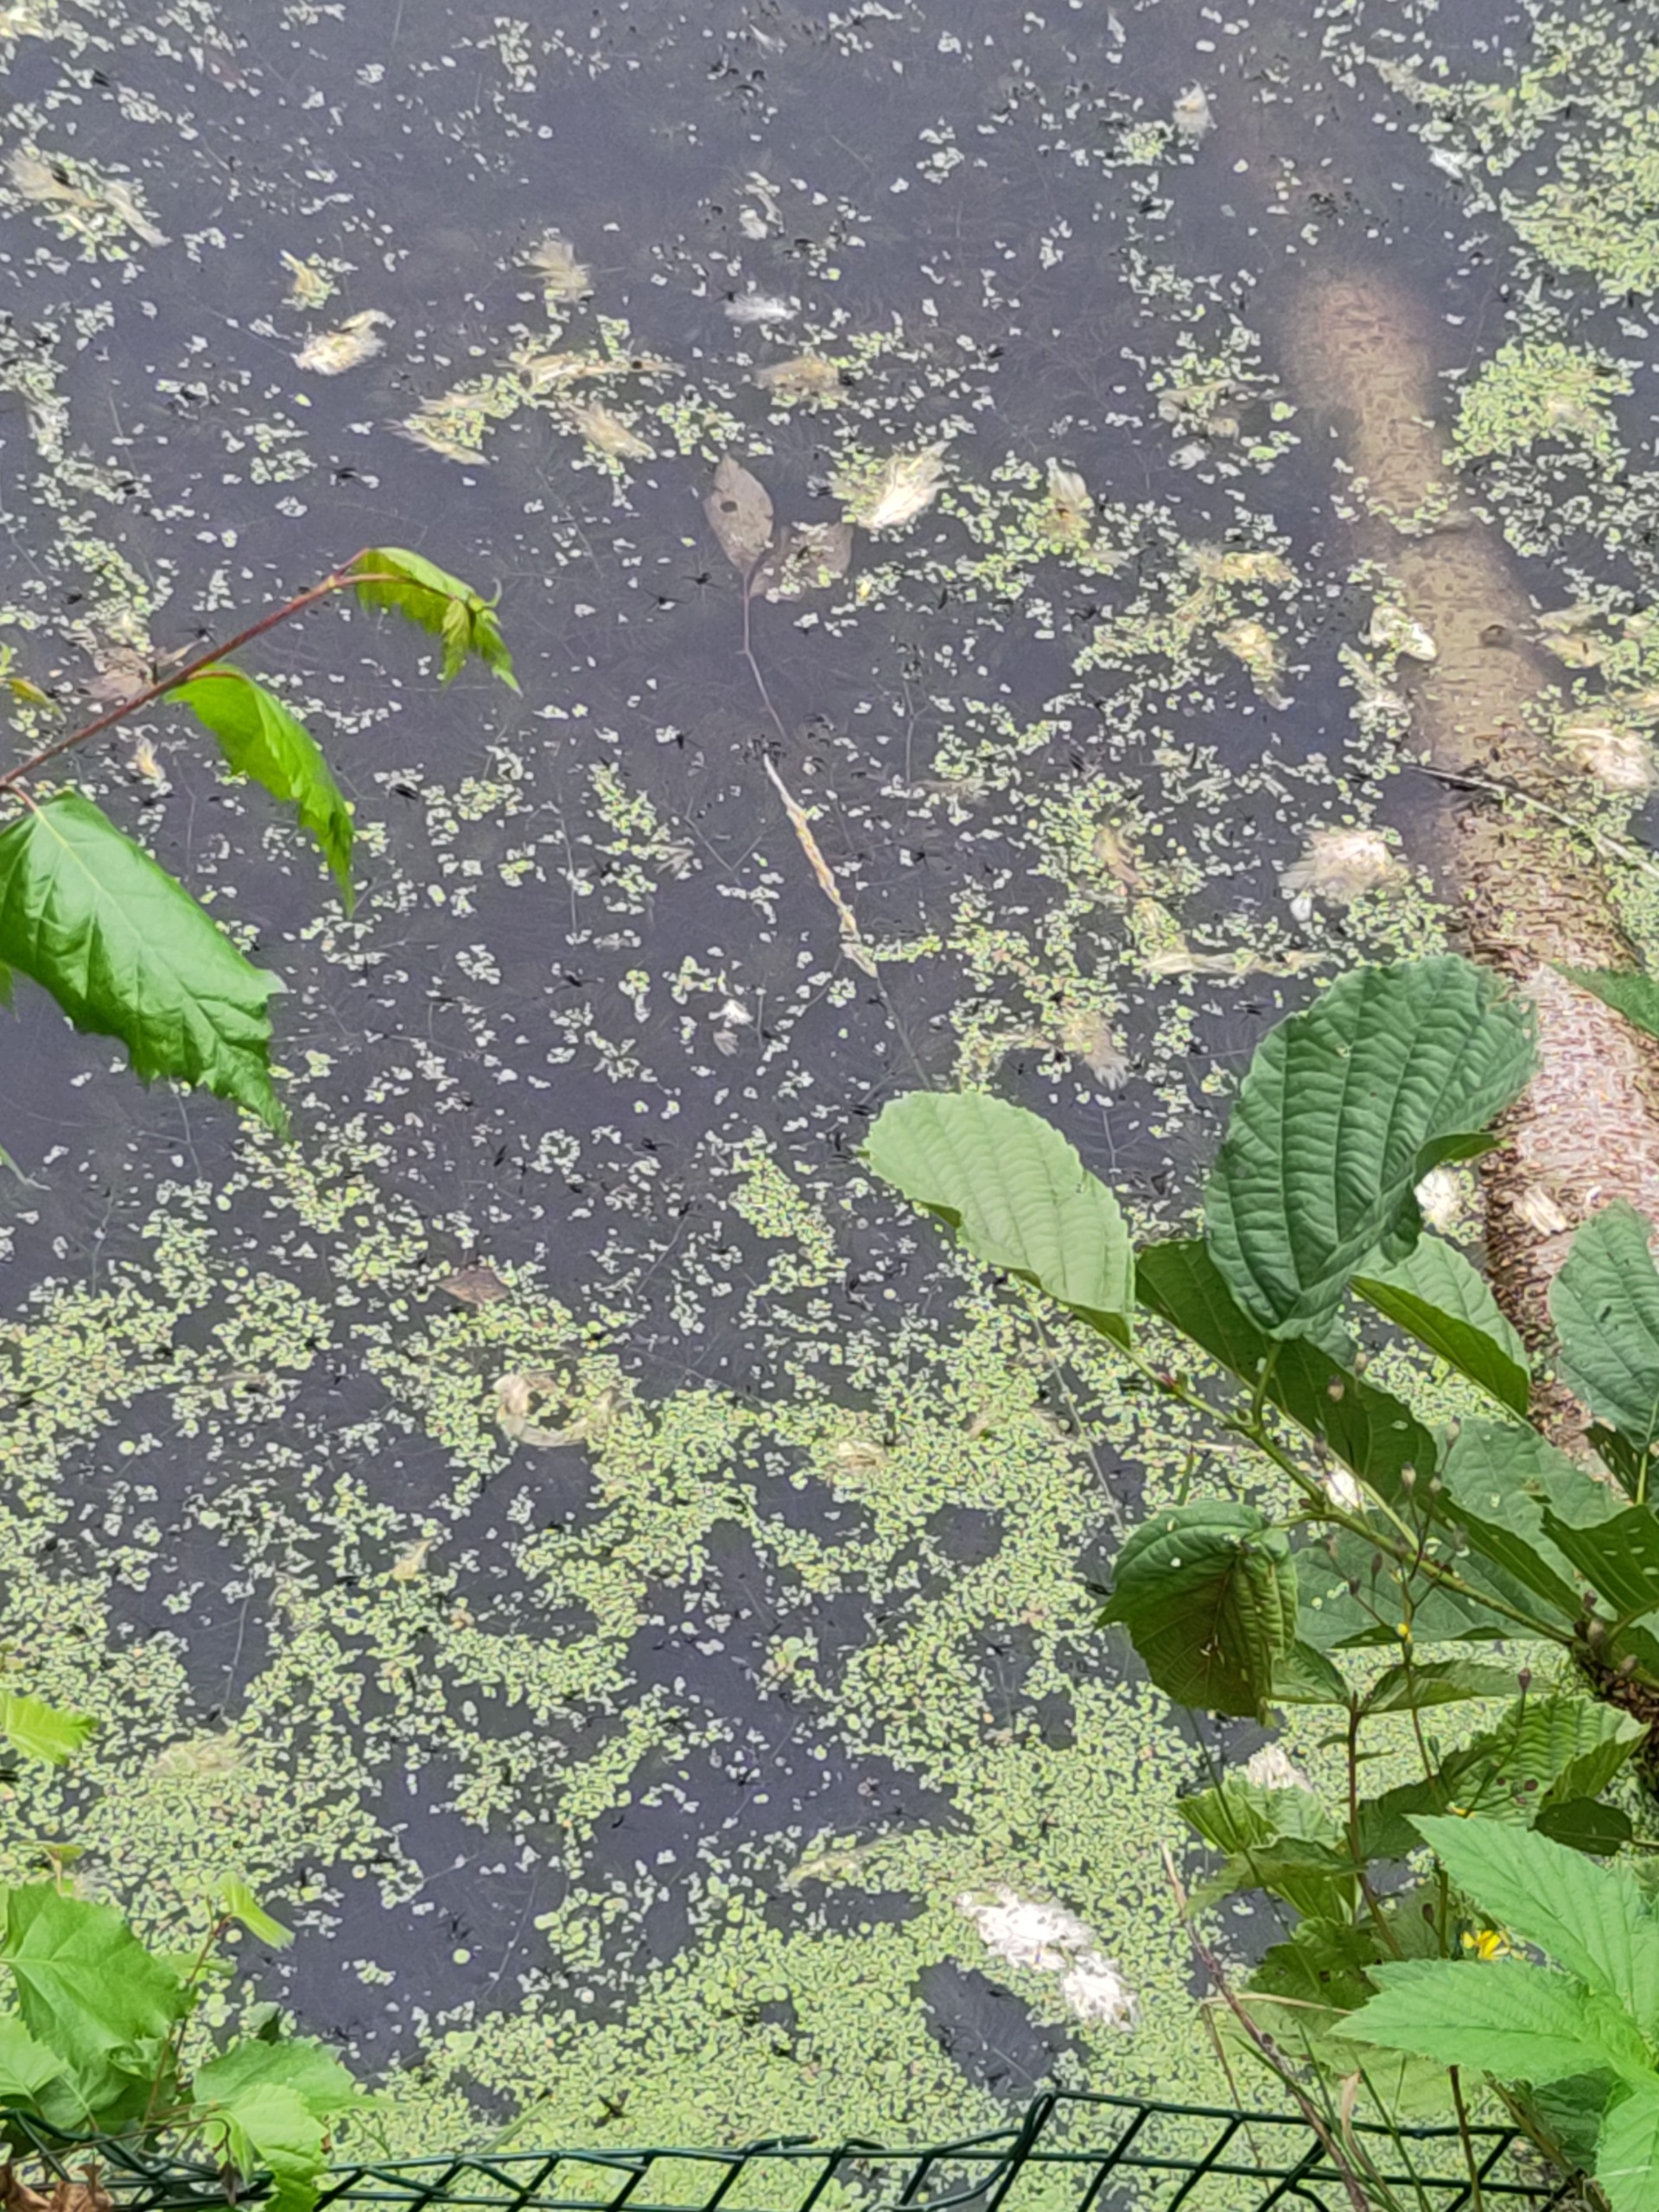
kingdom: Plantae
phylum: Tracheophyta
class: Liliopsida
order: Alismatales
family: Araceae
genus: Lemna
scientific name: Lemna minor
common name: Liden andemad
